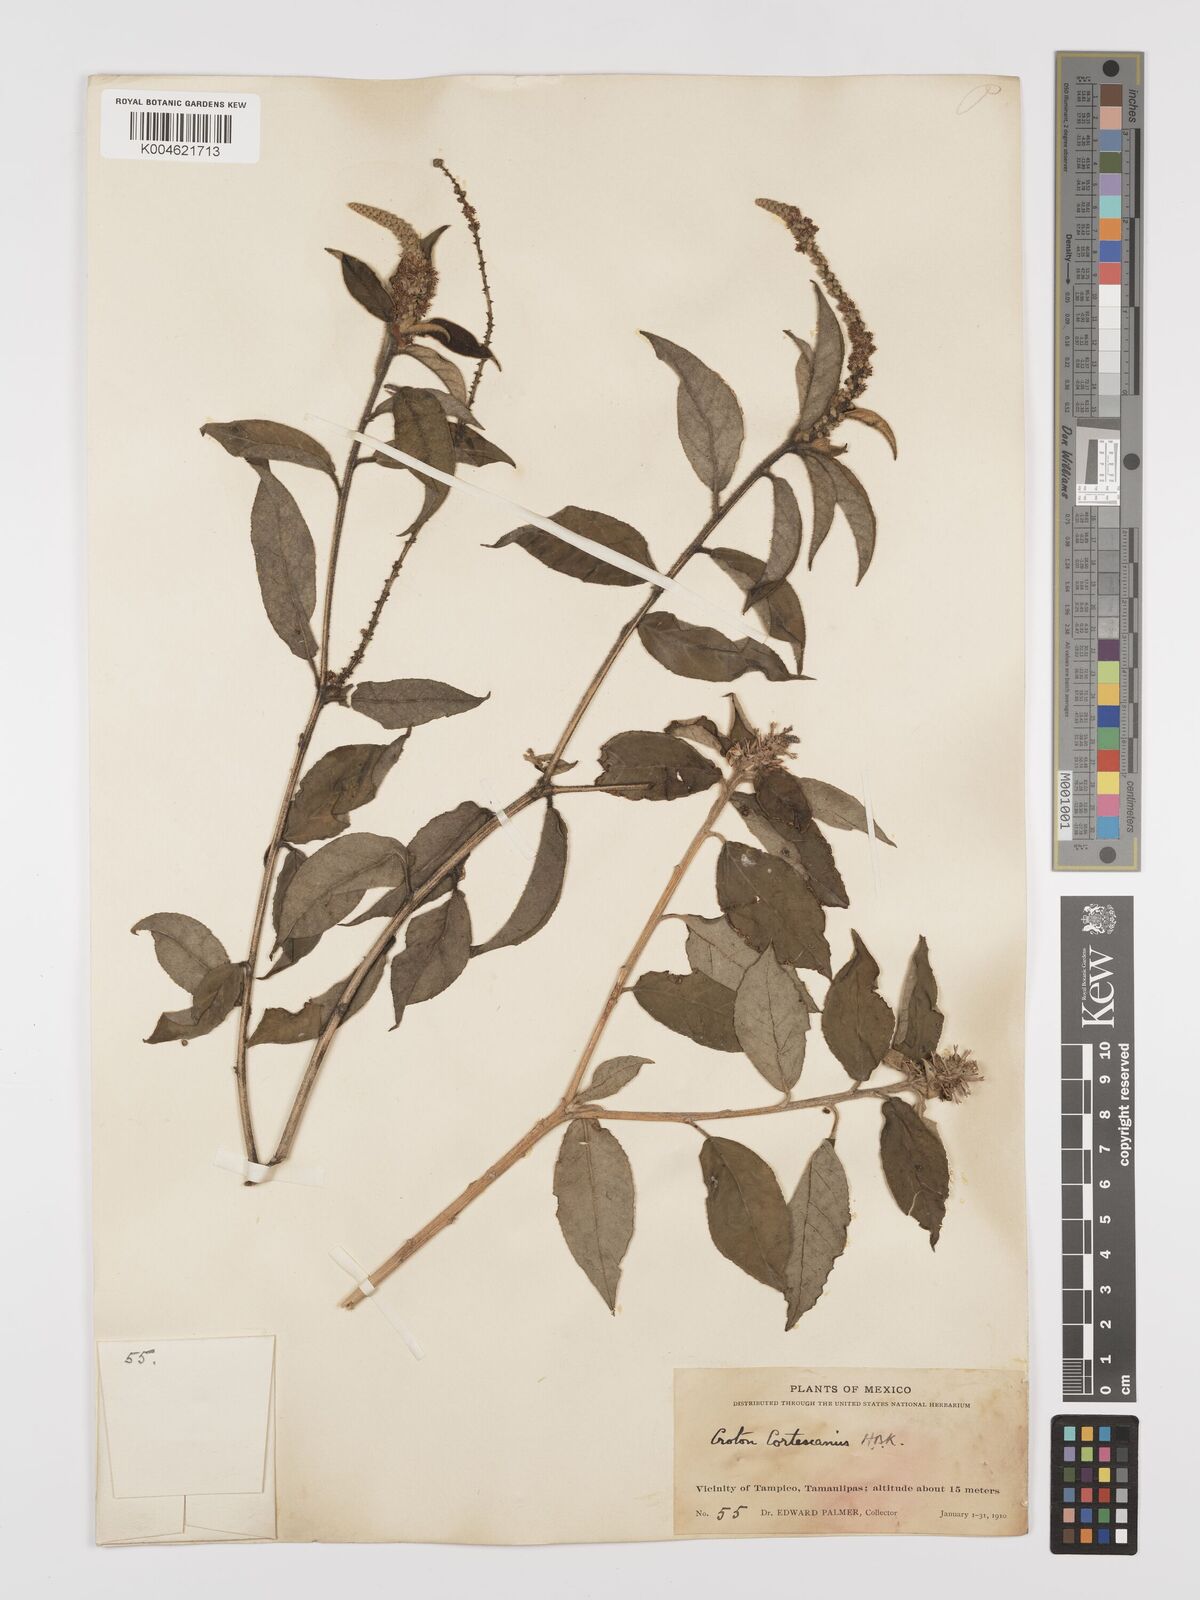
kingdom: Plantae
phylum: Tracheophyta
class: Magnoliopsida
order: Malpighiales
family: Euphorbiaceae
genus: Croton
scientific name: Croton cortesianus
